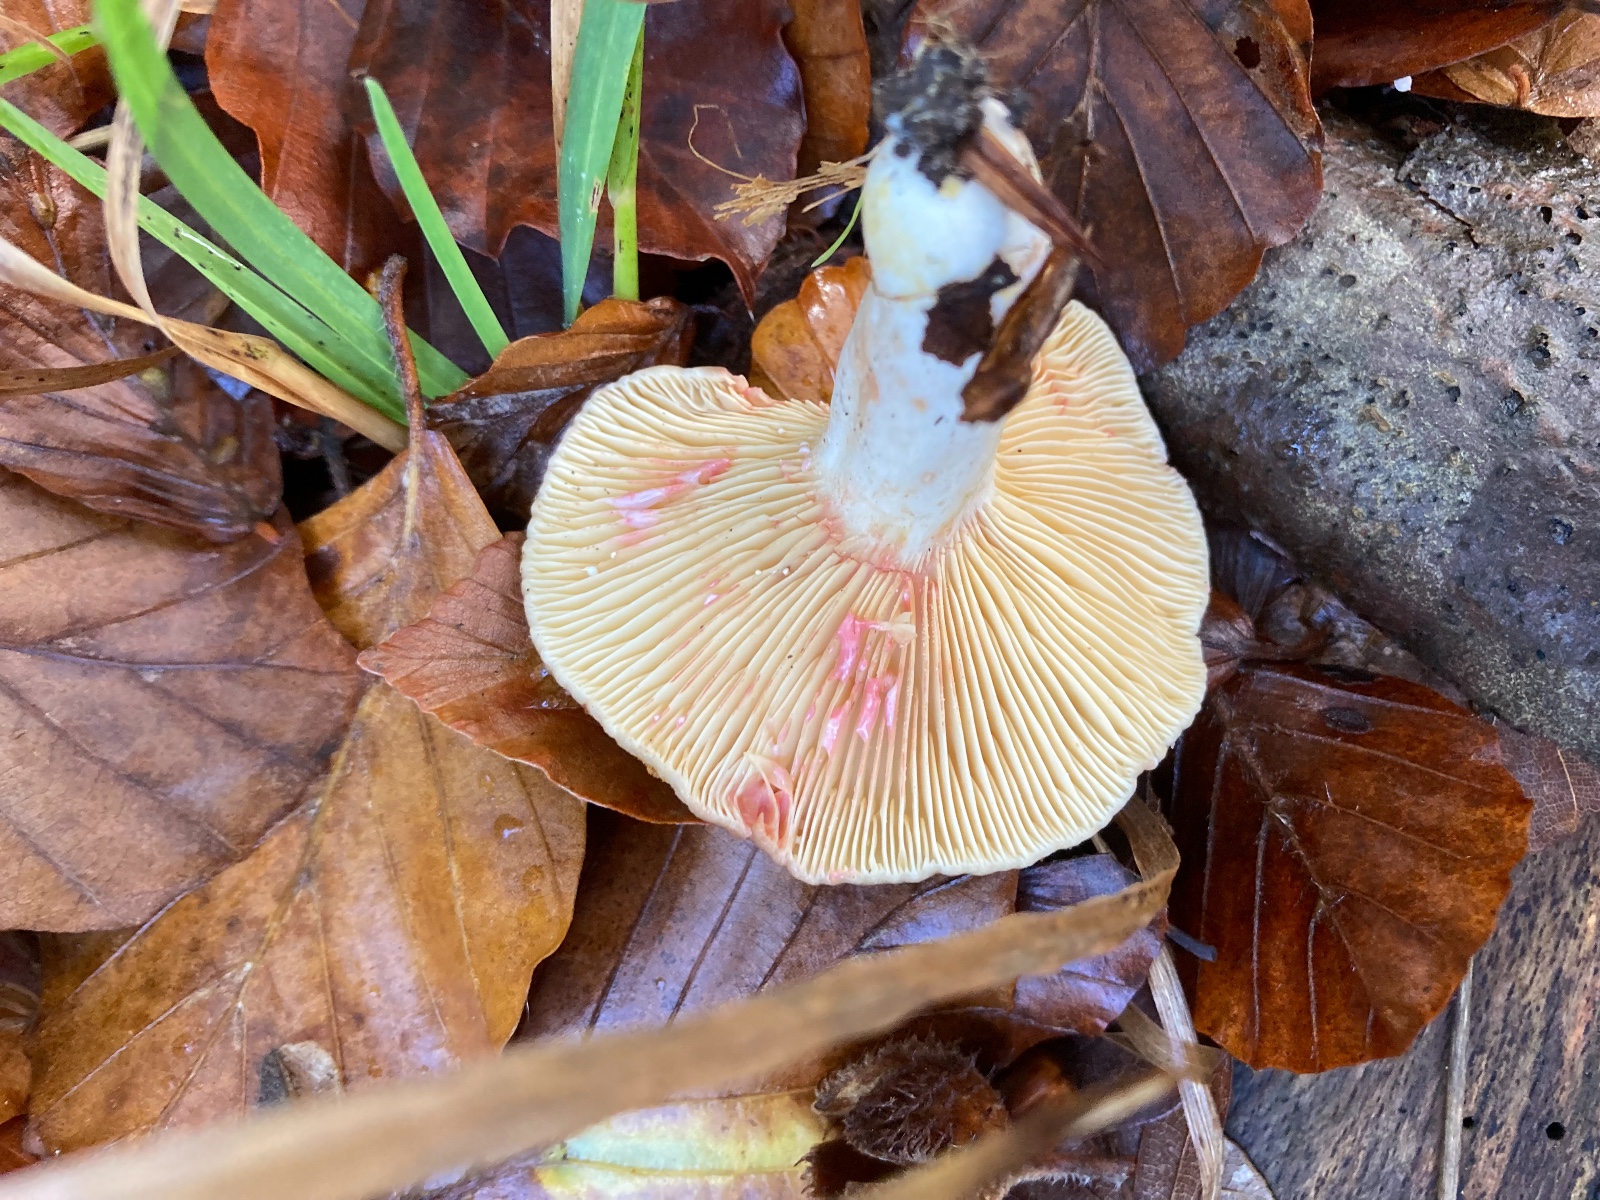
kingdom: Fungi
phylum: Basidiomycota
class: Agaricomycetes
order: Russulales
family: Russulaceae
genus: Lactarius
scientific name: Lactarius acris
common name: rosamælket mælkehat
